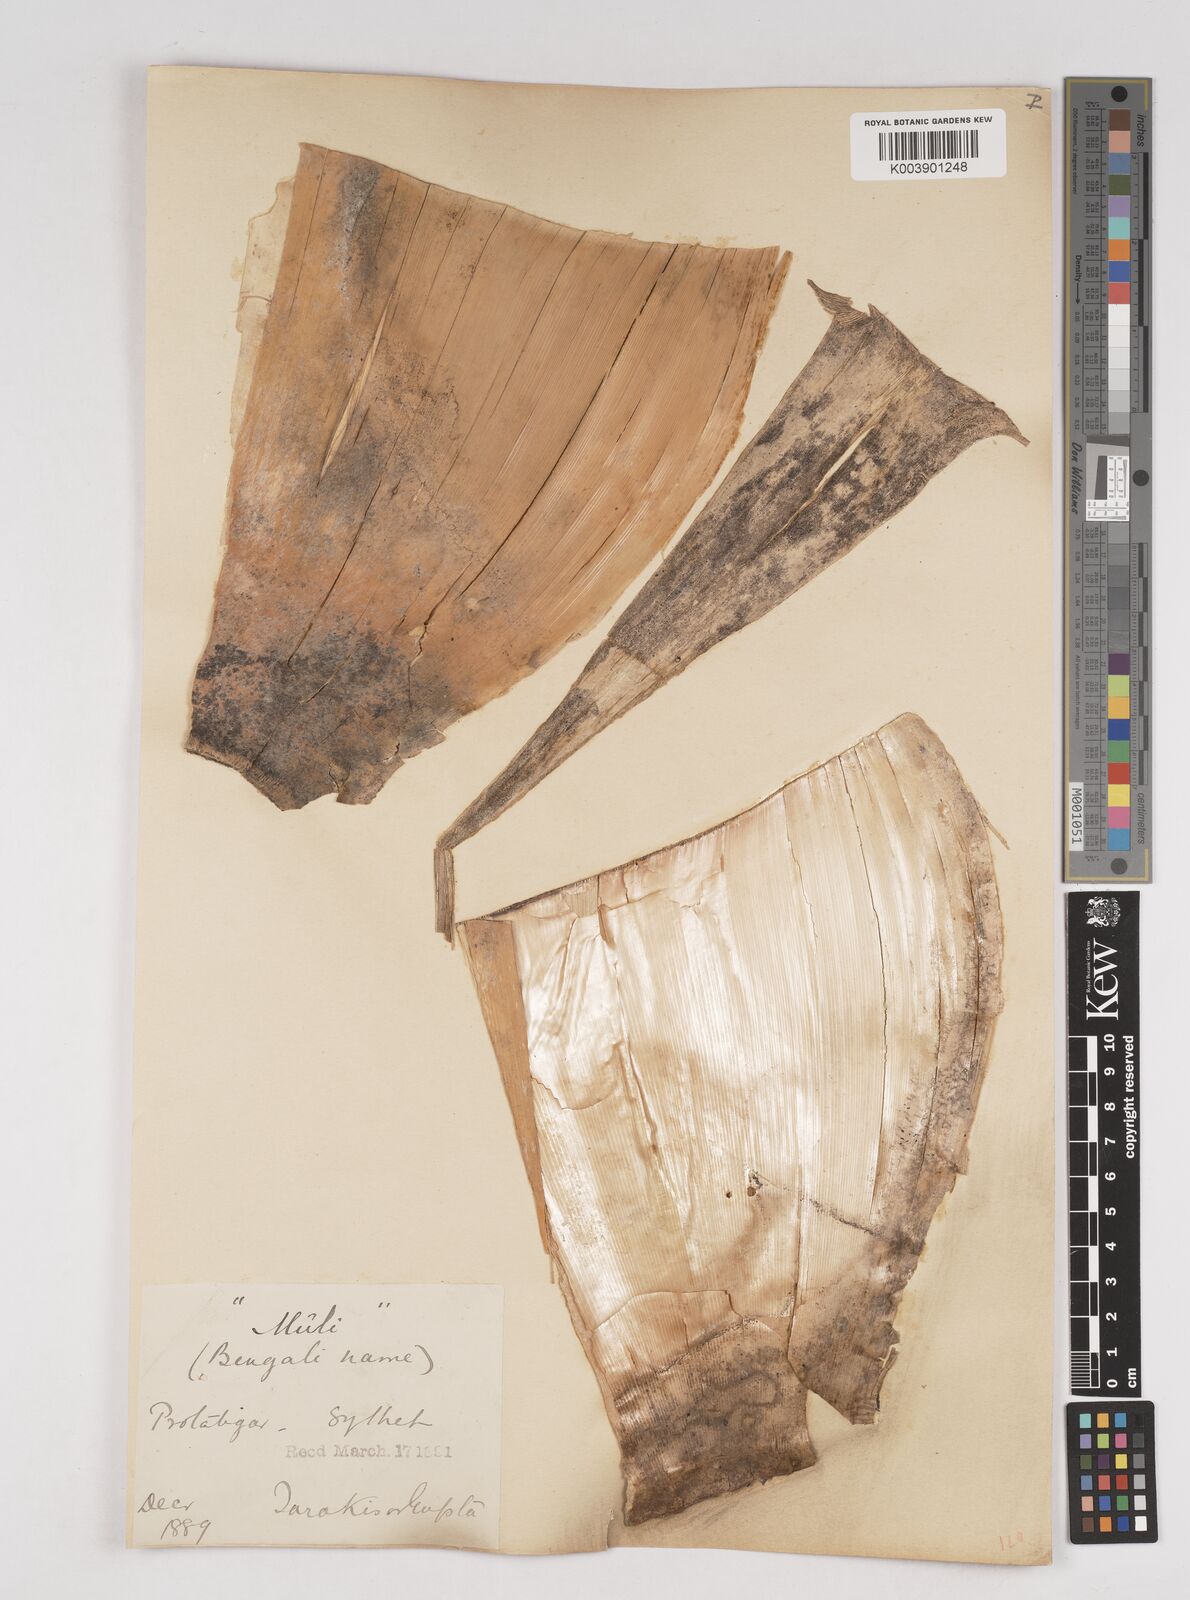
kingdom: Plantae
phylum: Tracheophyta
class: Liliopsida
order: Poales
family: Poaceae
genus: Melocanna
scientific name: Melocanna baccifera
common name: Berry bamboo
